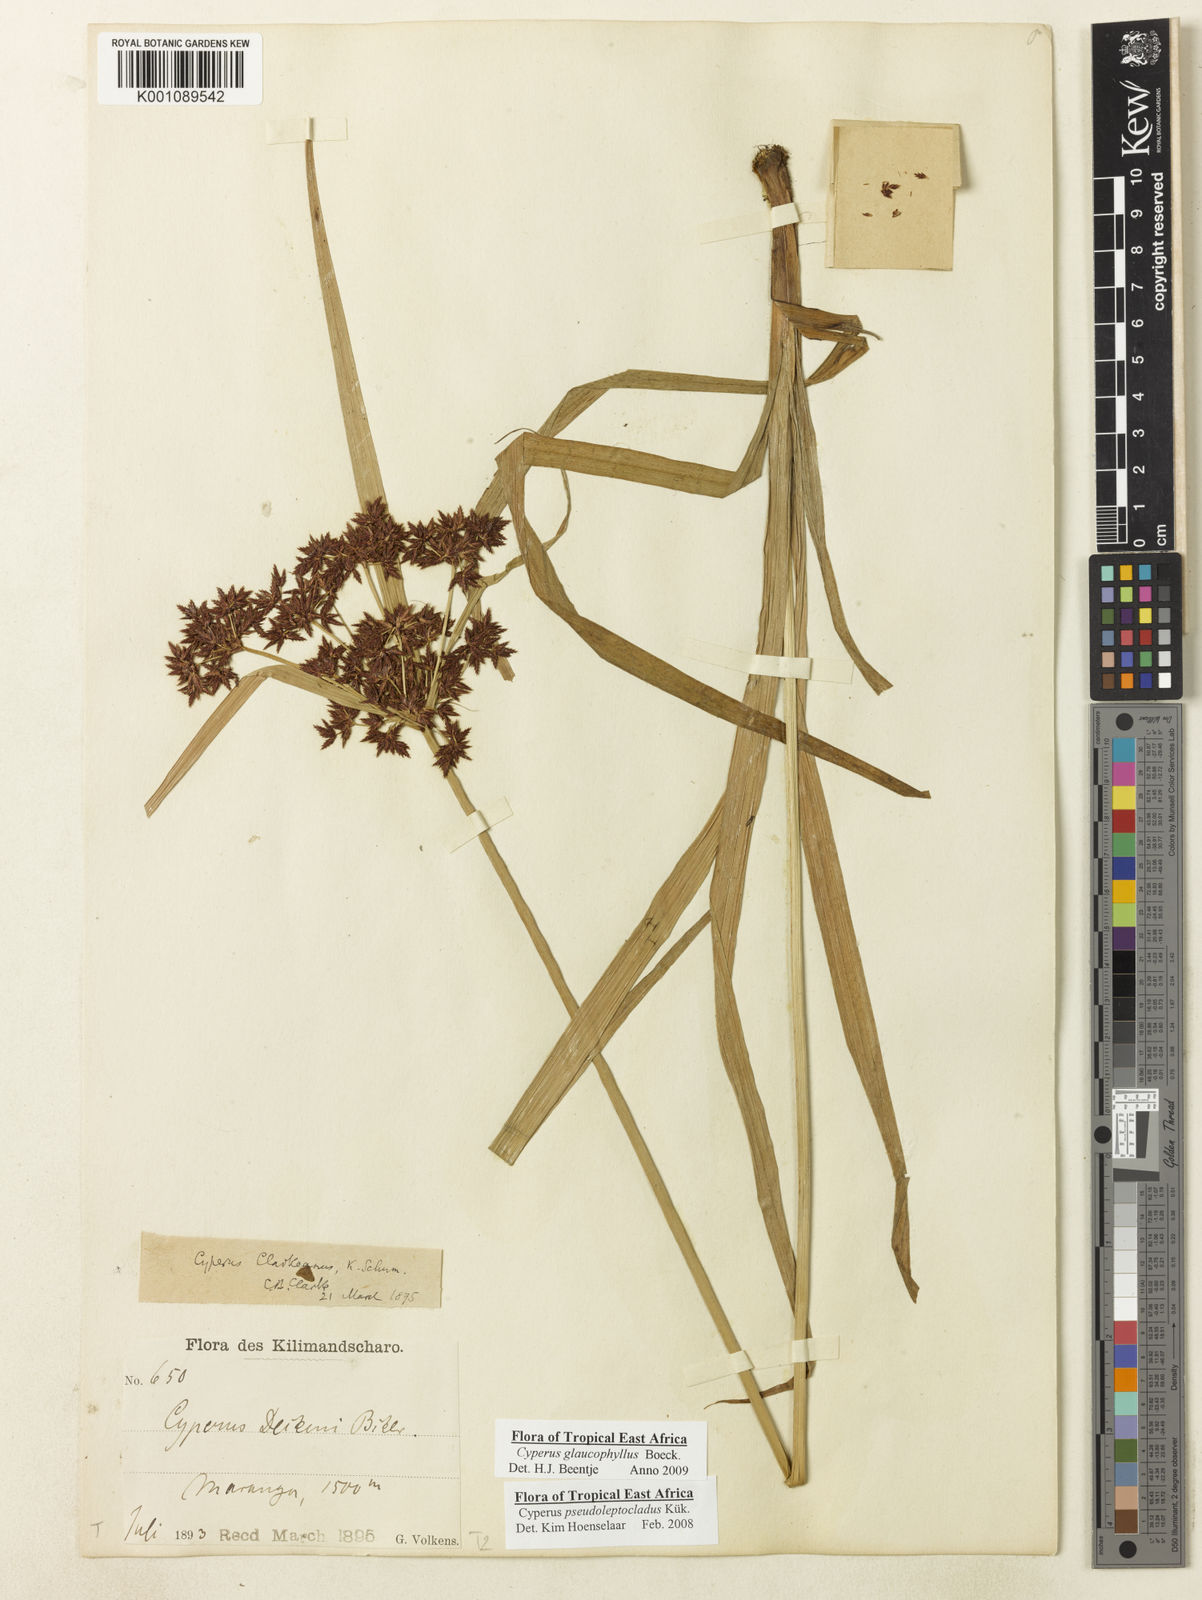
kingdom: Plantae
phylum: Tracheophyta
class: Liliopsida
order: Poales
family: Cyperaceae
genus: Cyperus
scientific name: Cyperus glaucophyllus
